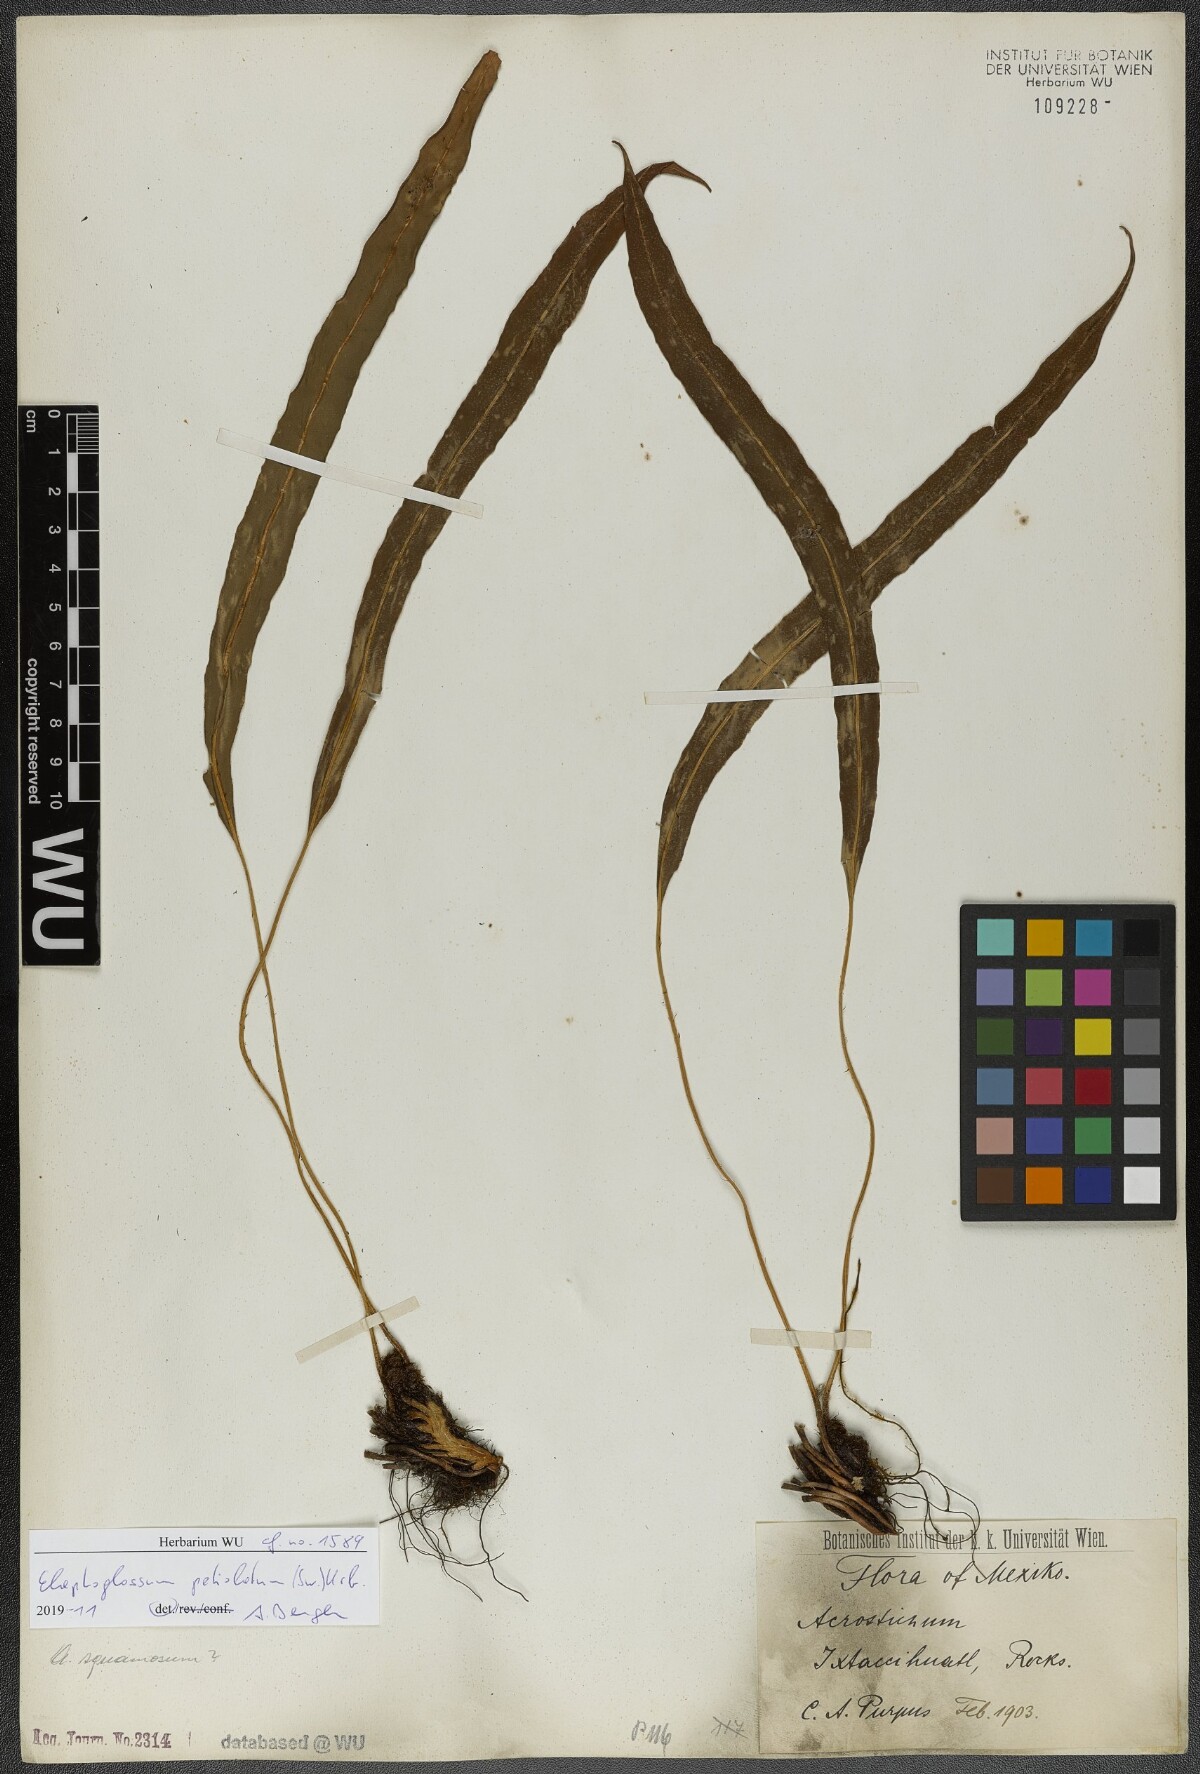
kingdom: Plantae
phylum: Tracheophyta
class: Polypodiopsida
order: Polypodiales
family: Dryopteridaceae
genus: Elaphoglossum
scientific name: Elaphoglossum petiolatum
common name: Graceful tonguefern
